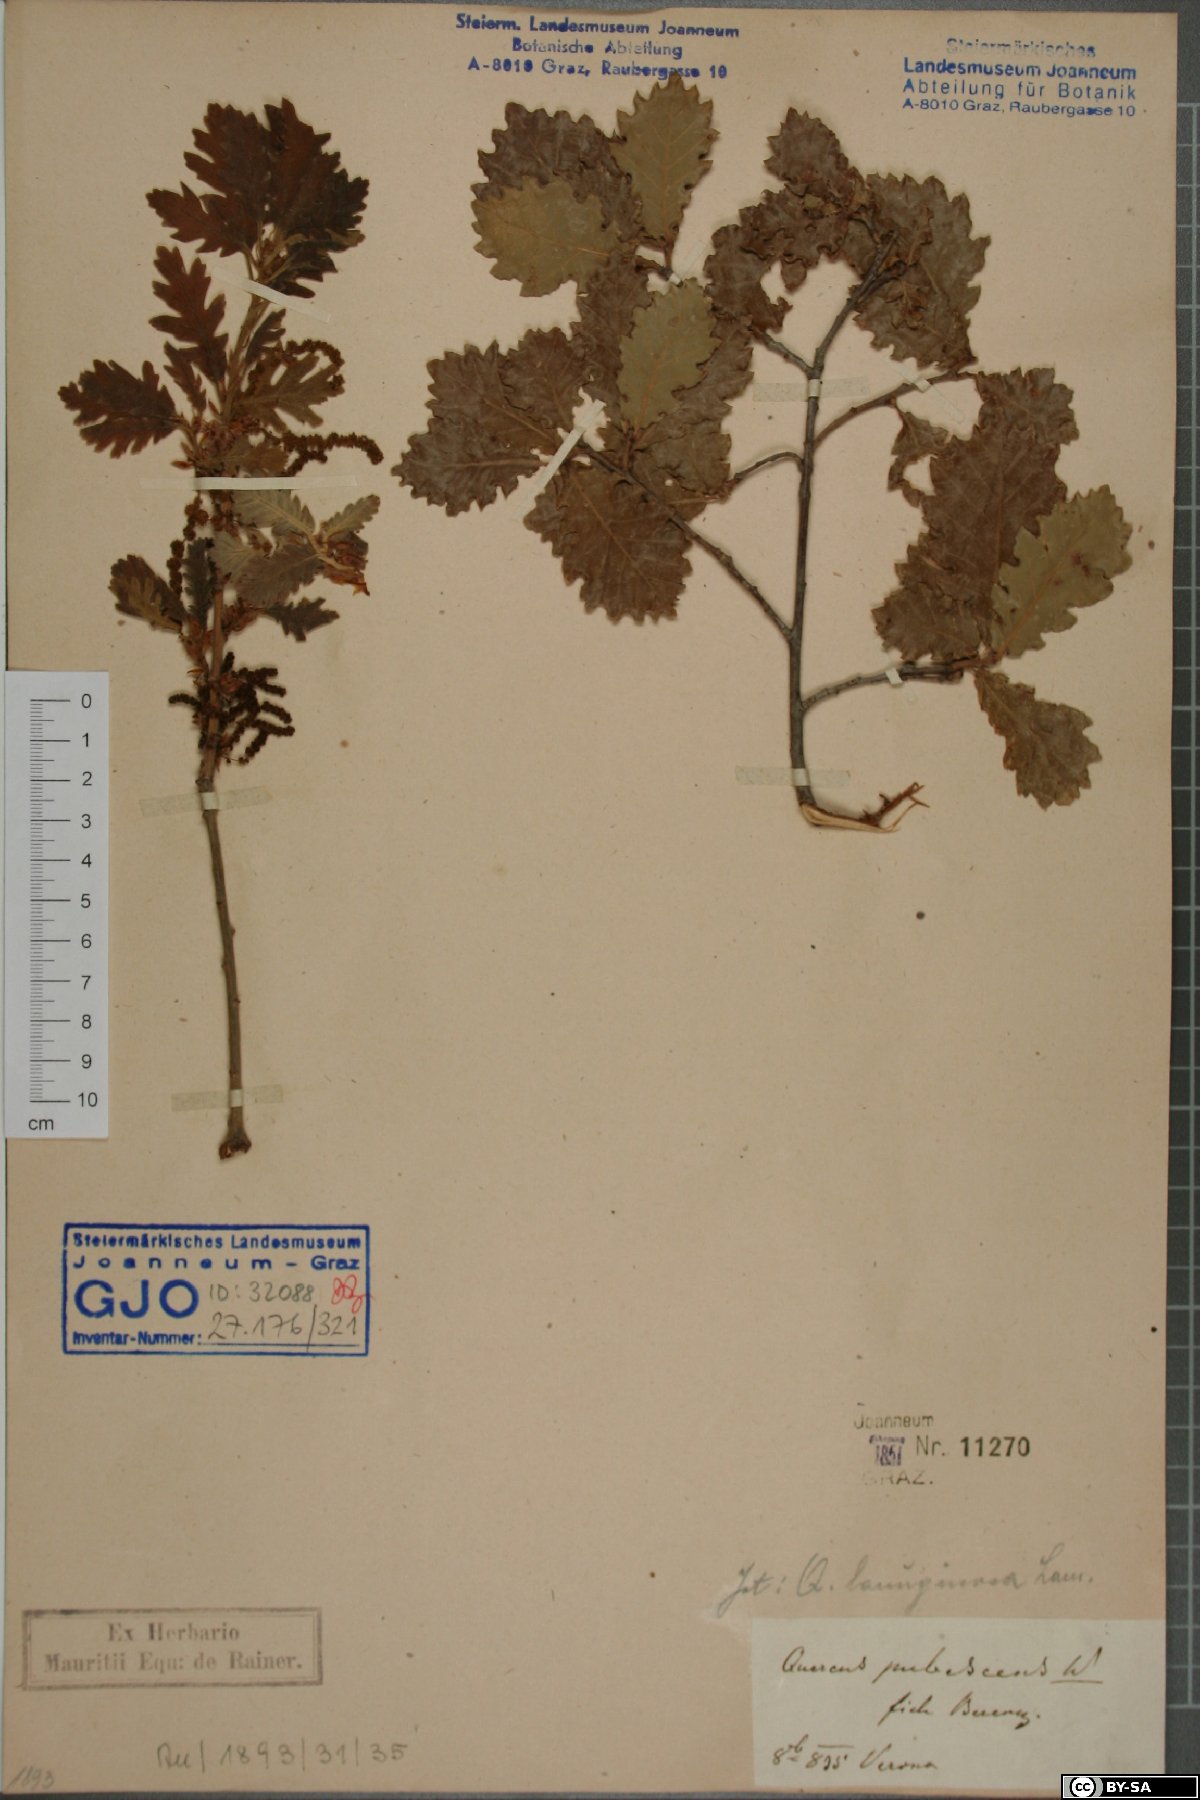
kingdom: Plantae
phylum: Tracheophyta
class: Magnoliopsida
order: Fagales
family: Fagaceae
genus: Quercus
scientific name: Quercus pubescens
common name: Downy oak
